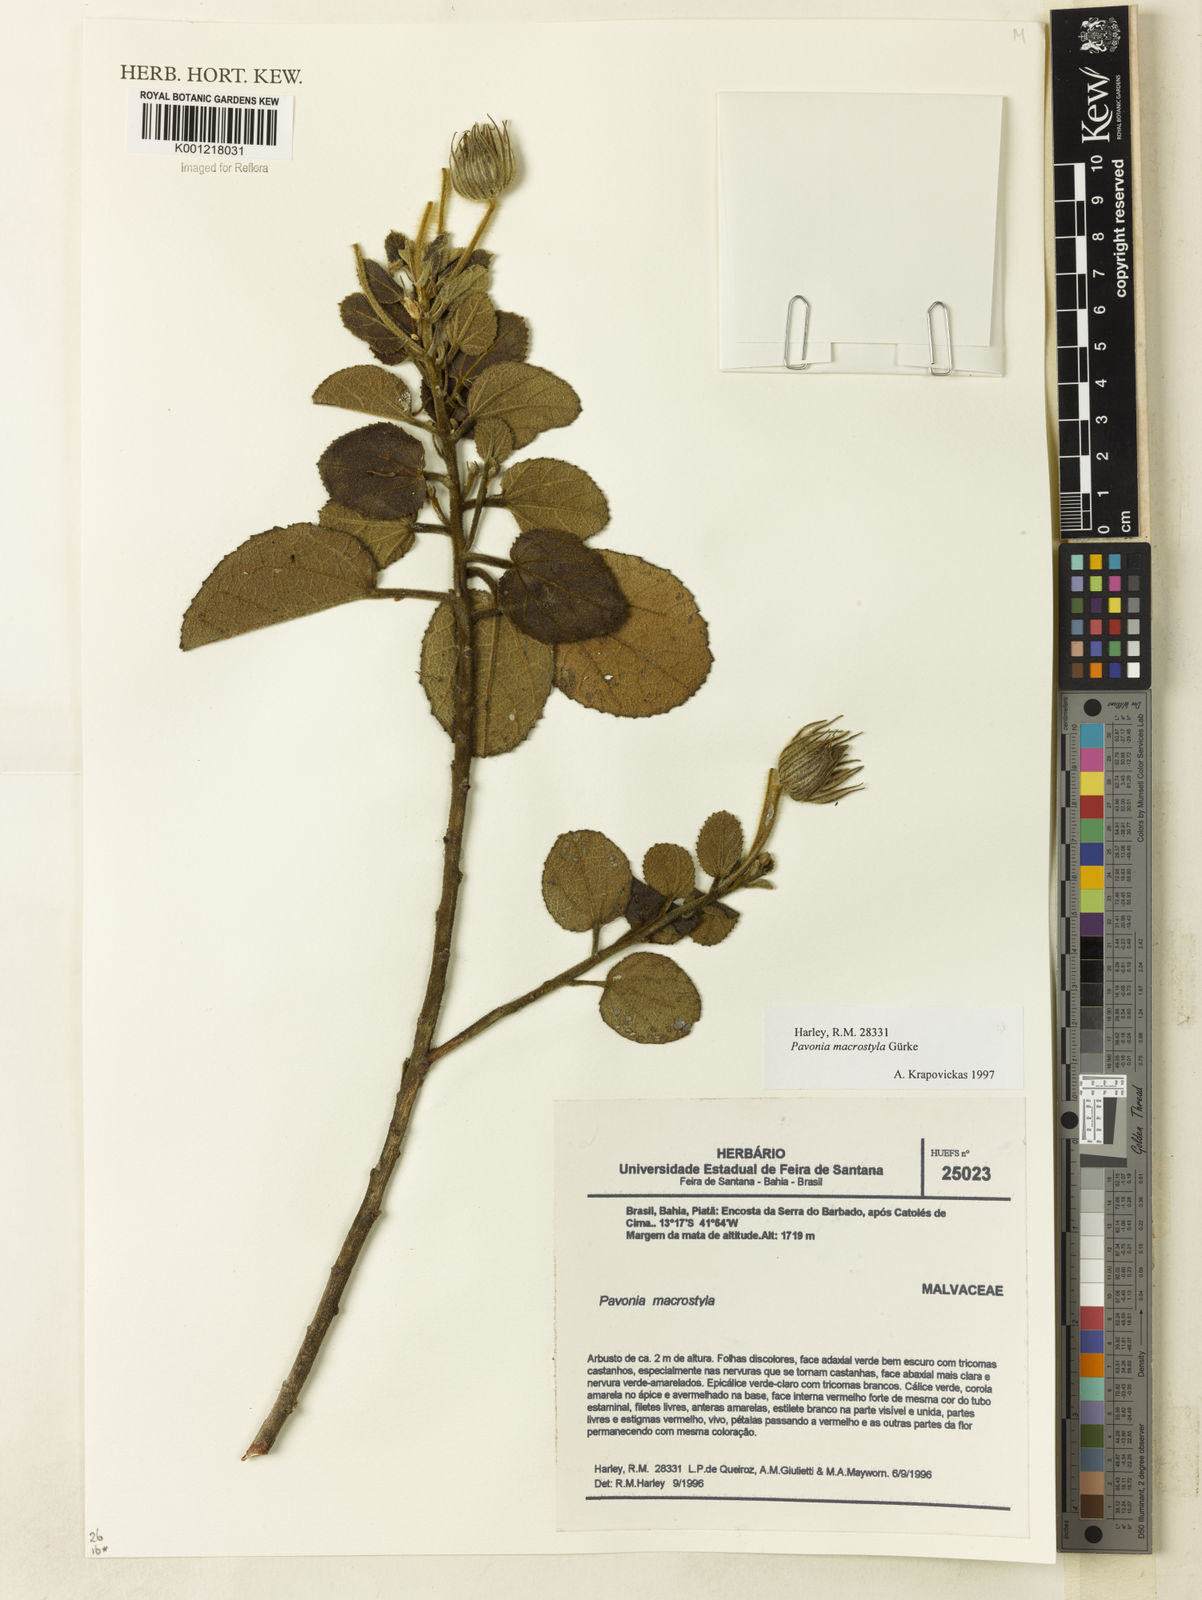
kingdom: Plantae
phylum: Tracheophyta
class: Magnoliopsida
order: Malvales
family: Malvaceae
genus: Pavonia
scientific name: Pavonia
